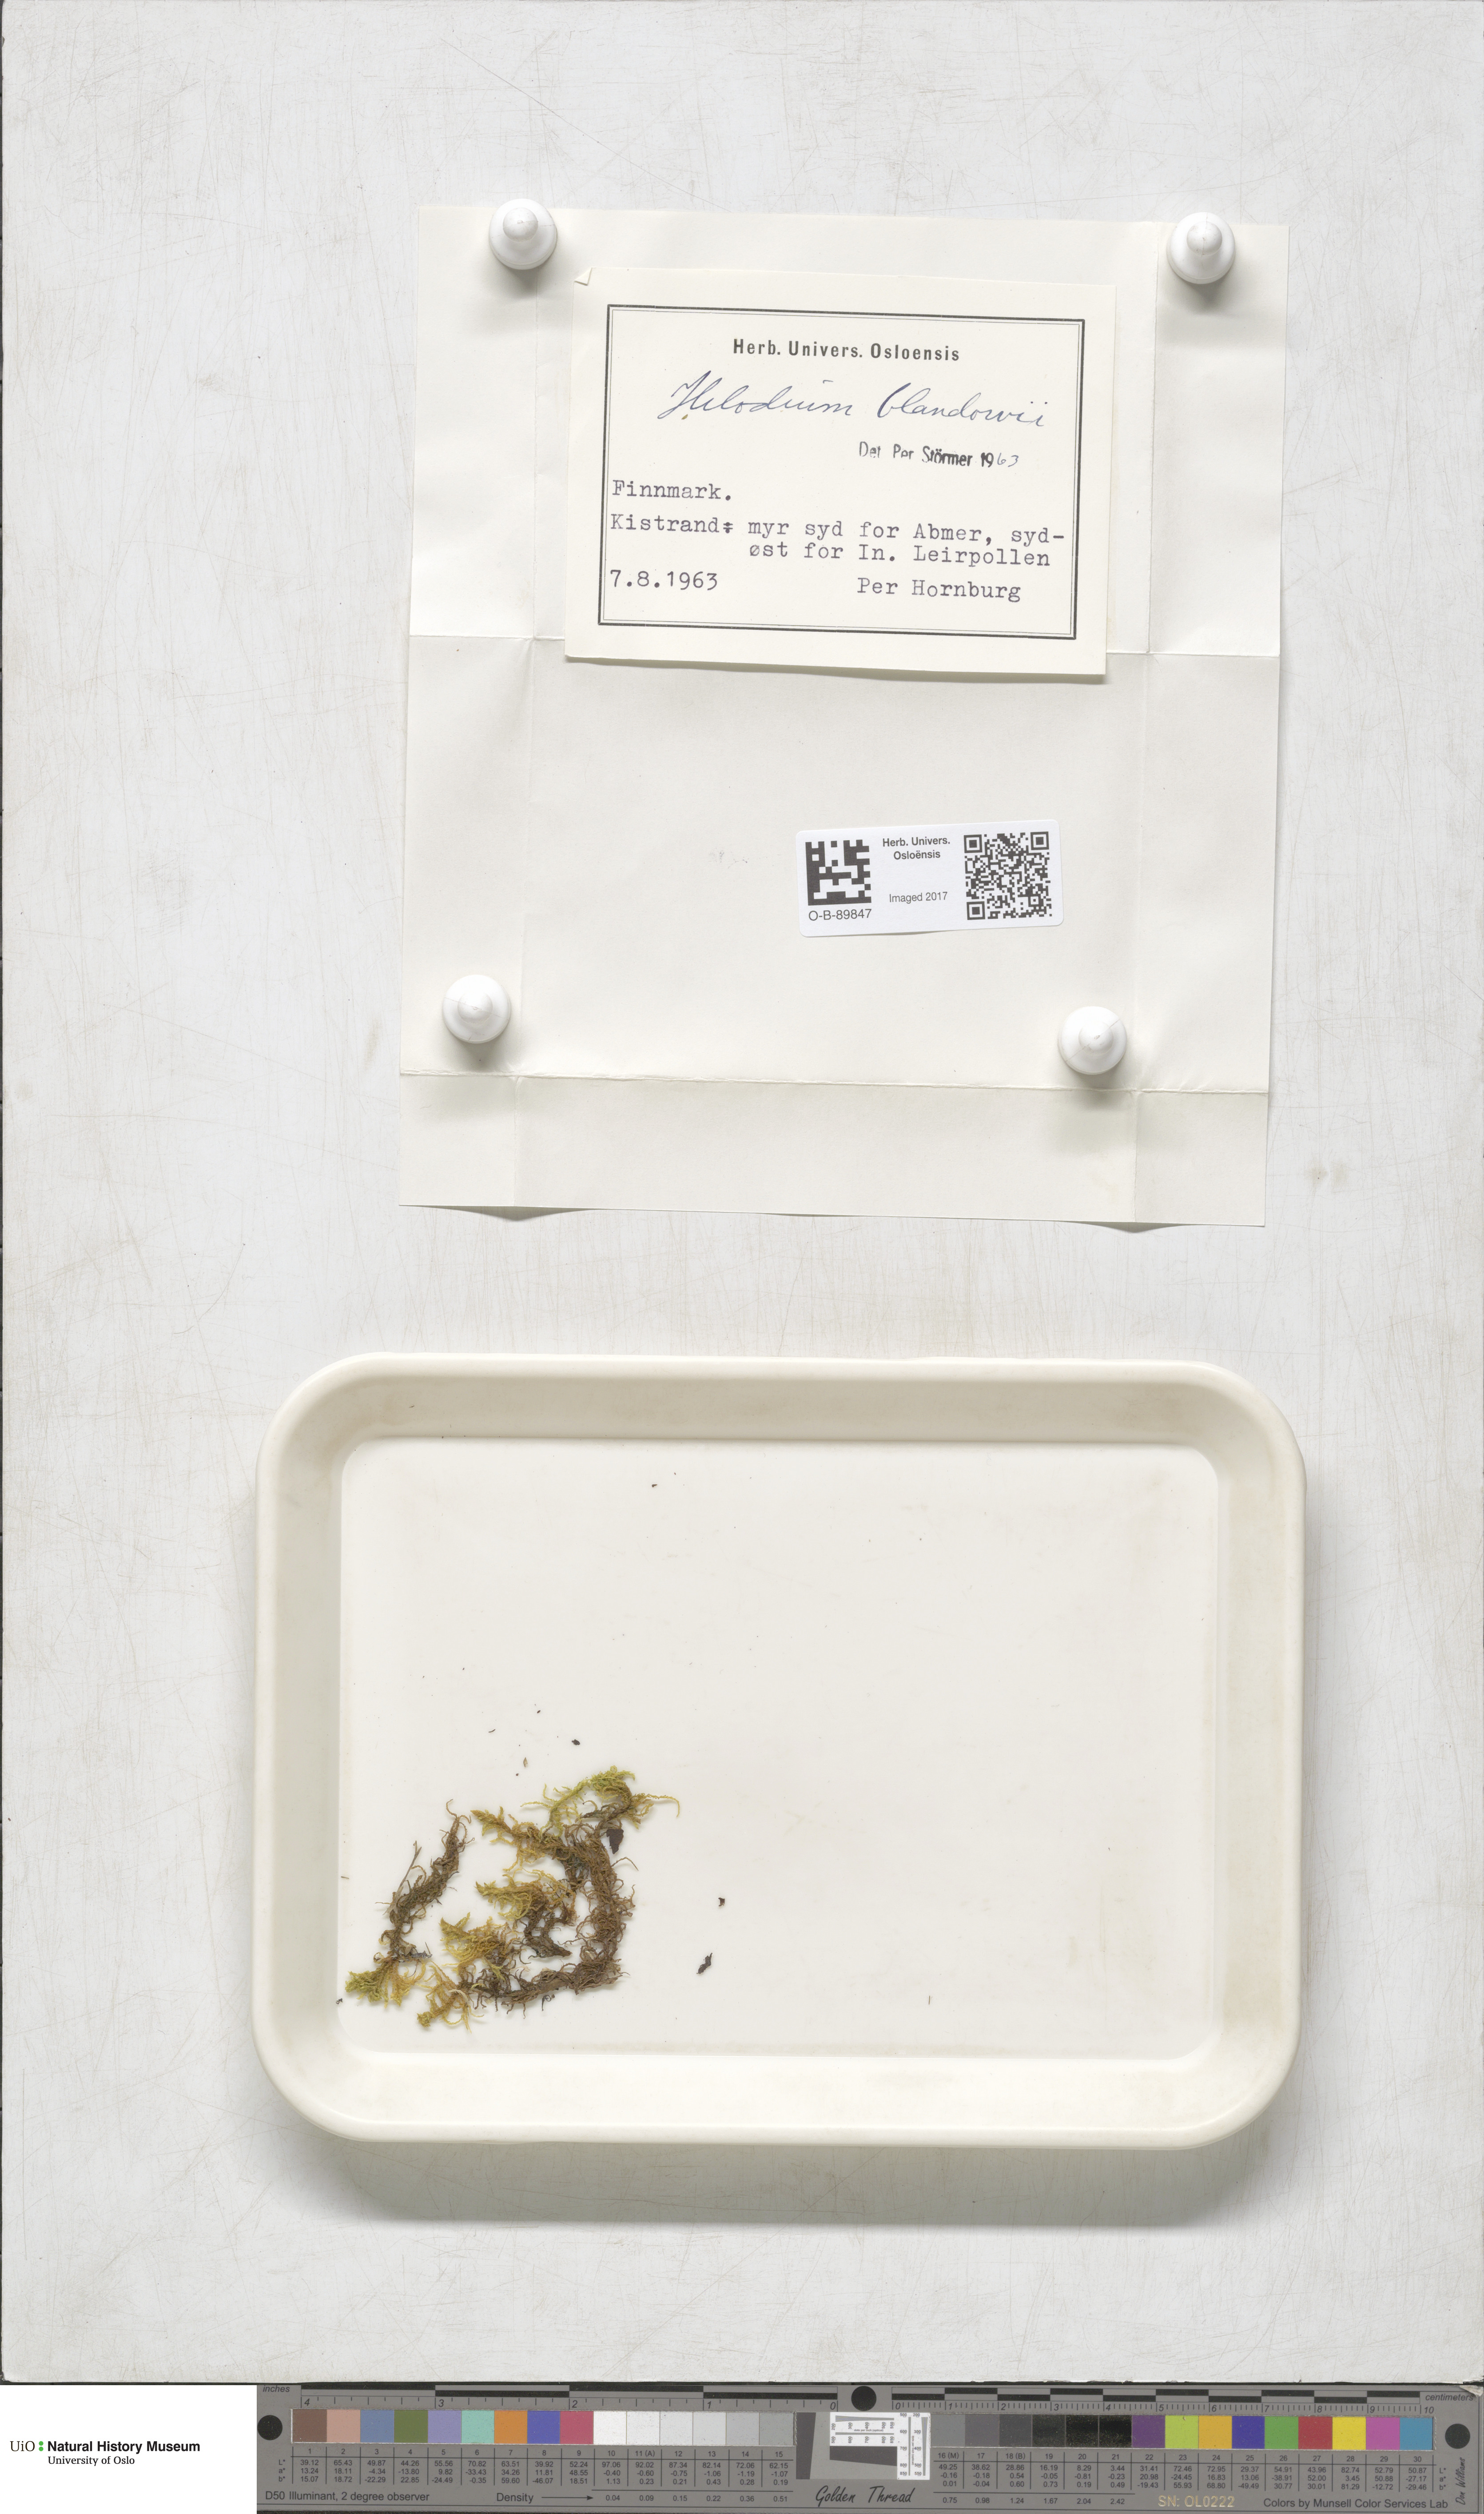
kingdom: Plantae
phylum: Bryophyta
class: Bryopsida
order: Hypnales
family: Helodiaceae
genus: Helodium
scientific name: Helodium blandowii
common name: Blandow's tamarisk-moss
